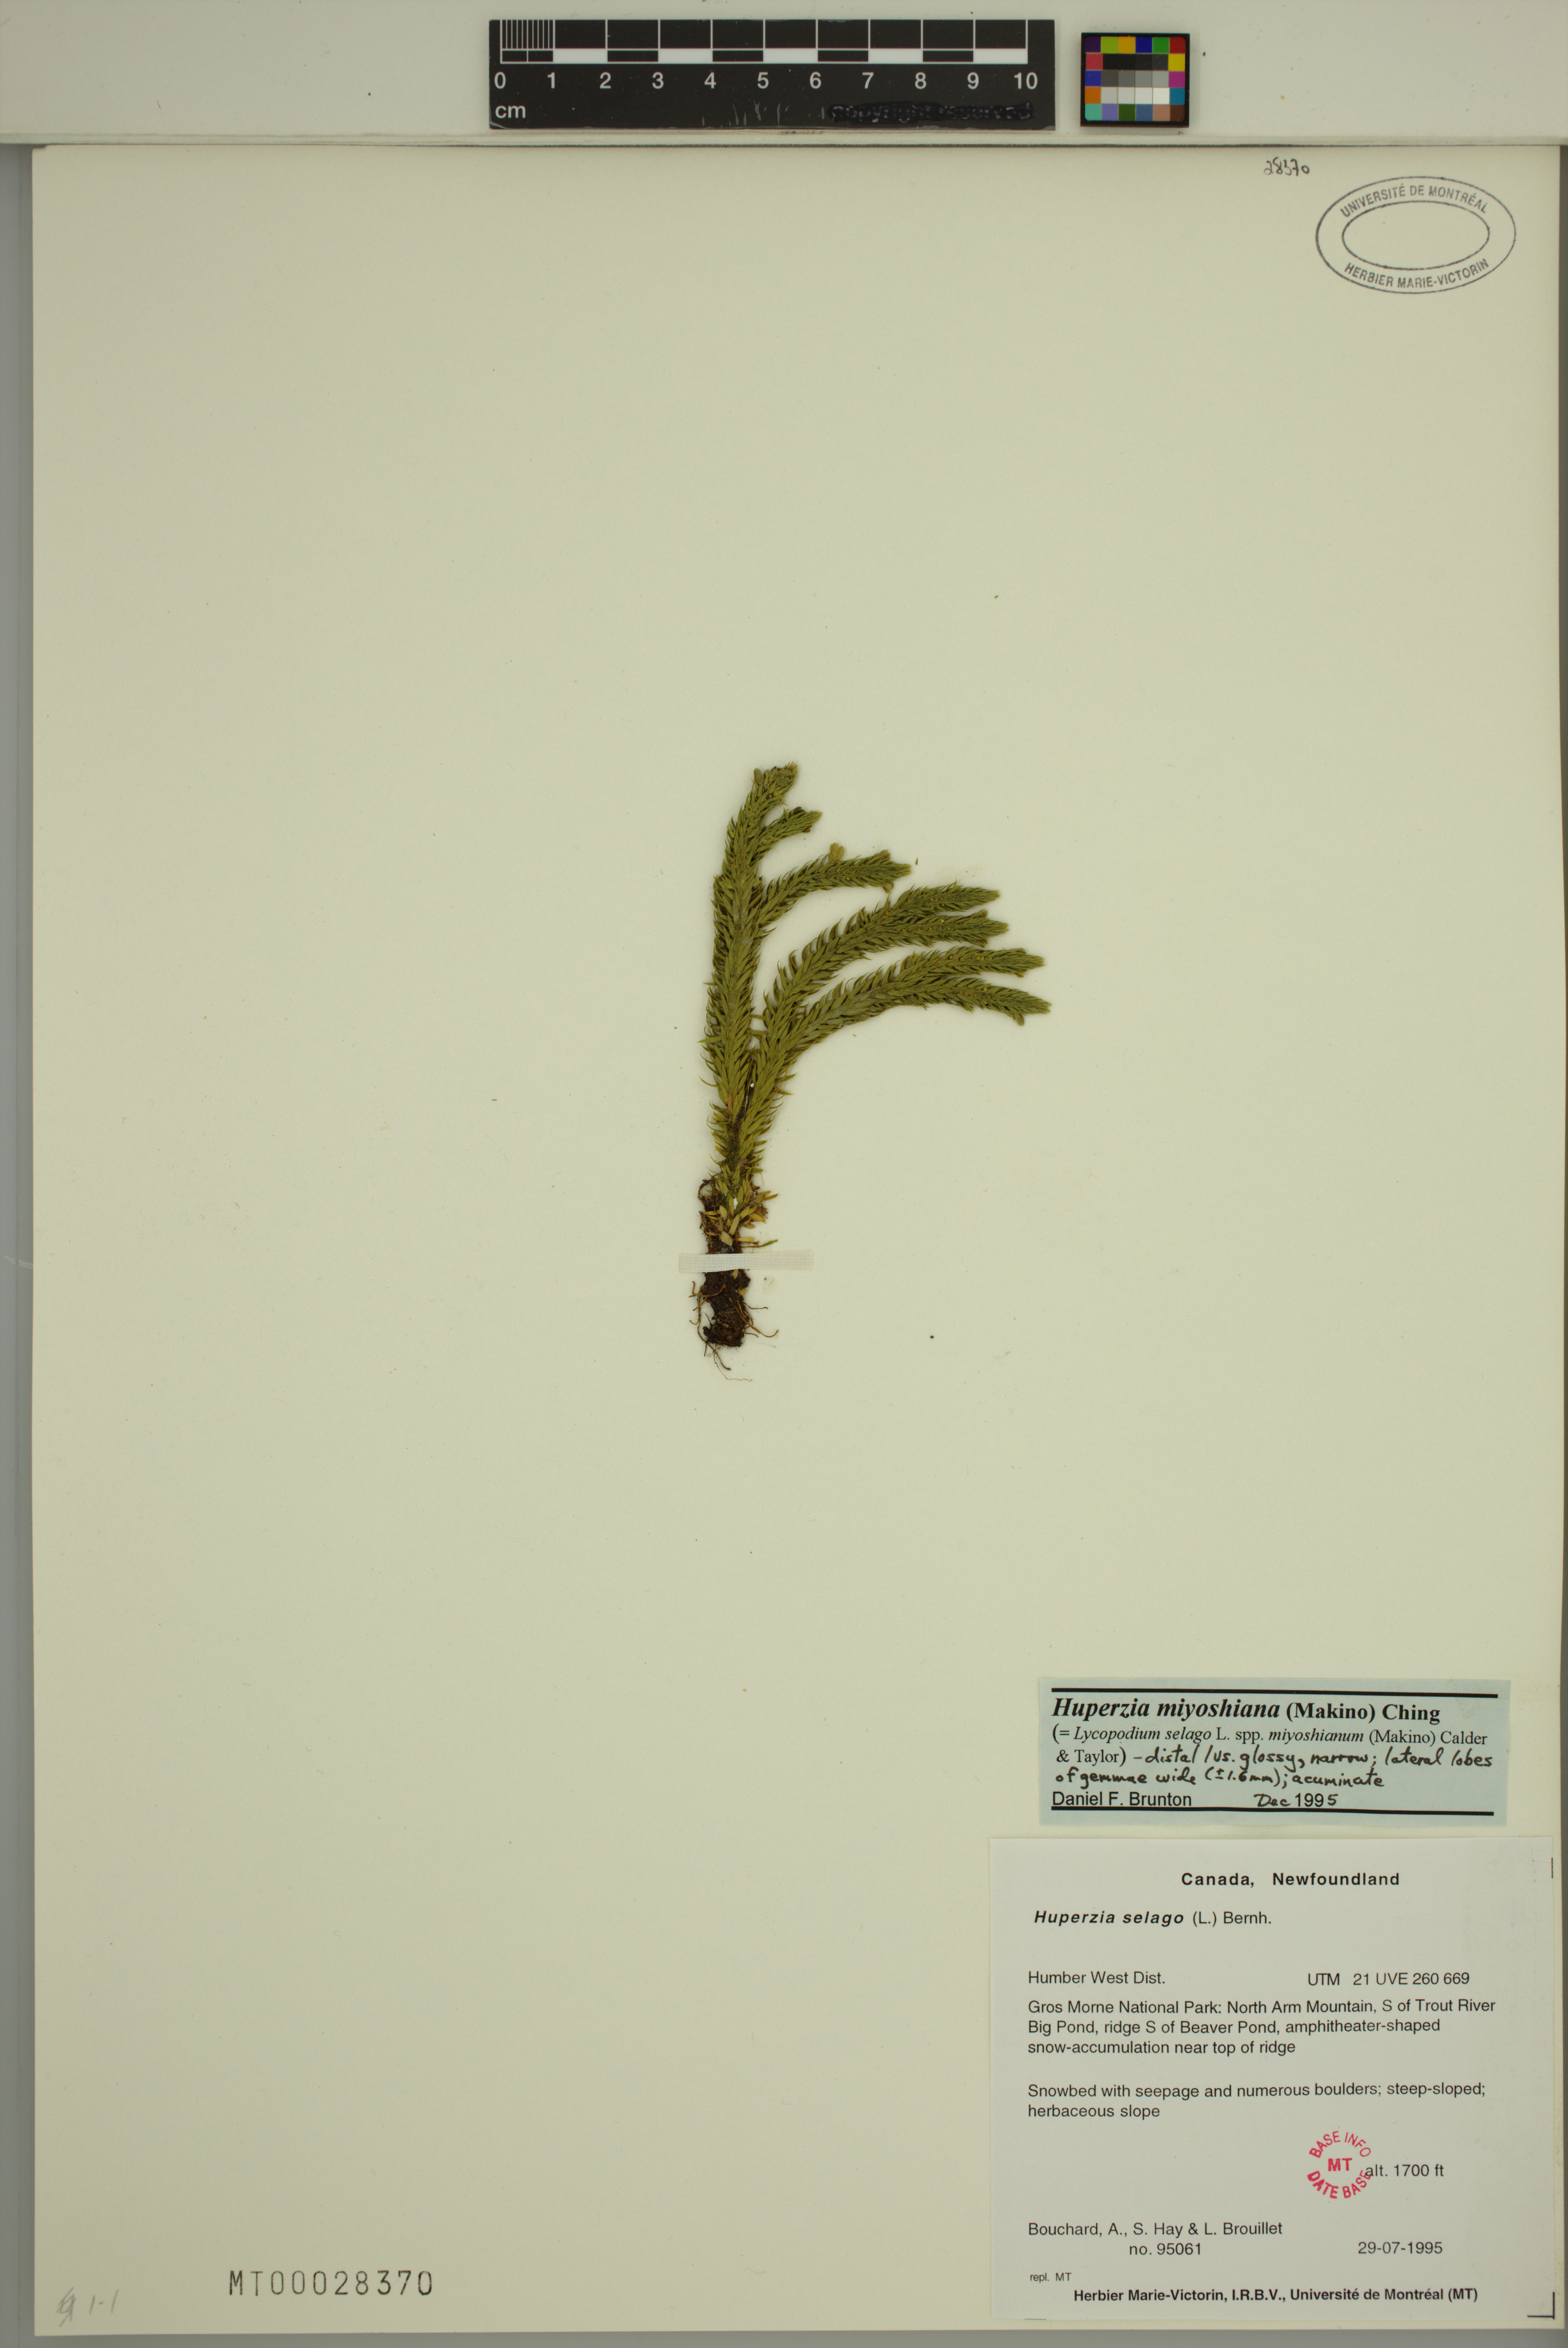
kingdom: Plantae
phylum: Tracheophyta
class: Lycopodiopsida
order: Lycopodiales
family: Lycopodiaceae
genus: Huperzia
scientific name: Huperzia miyoshiana
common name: Chinese clubmoss
